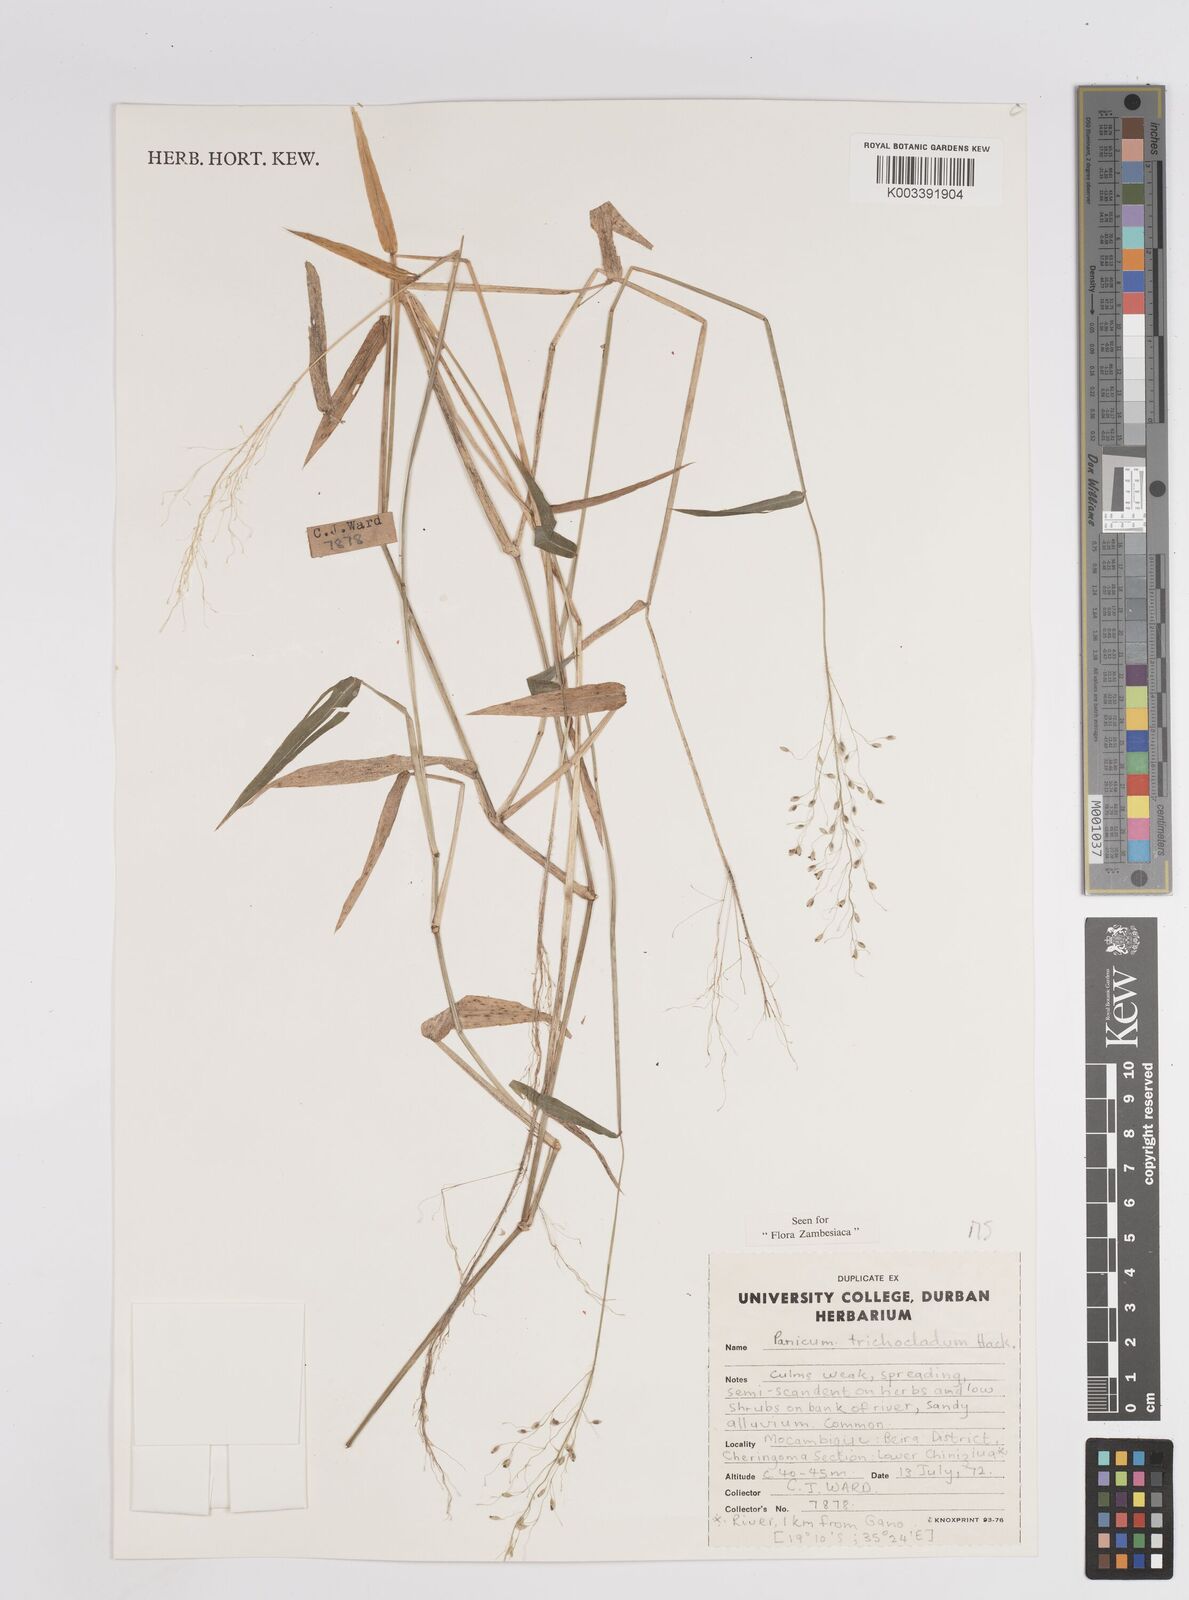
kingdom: Plantae
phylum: Tracheophyta
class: Liliopsida
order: Poales
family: Poaceae
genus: Panicum
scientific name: Panicum trichocladum
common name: Donkey grass
